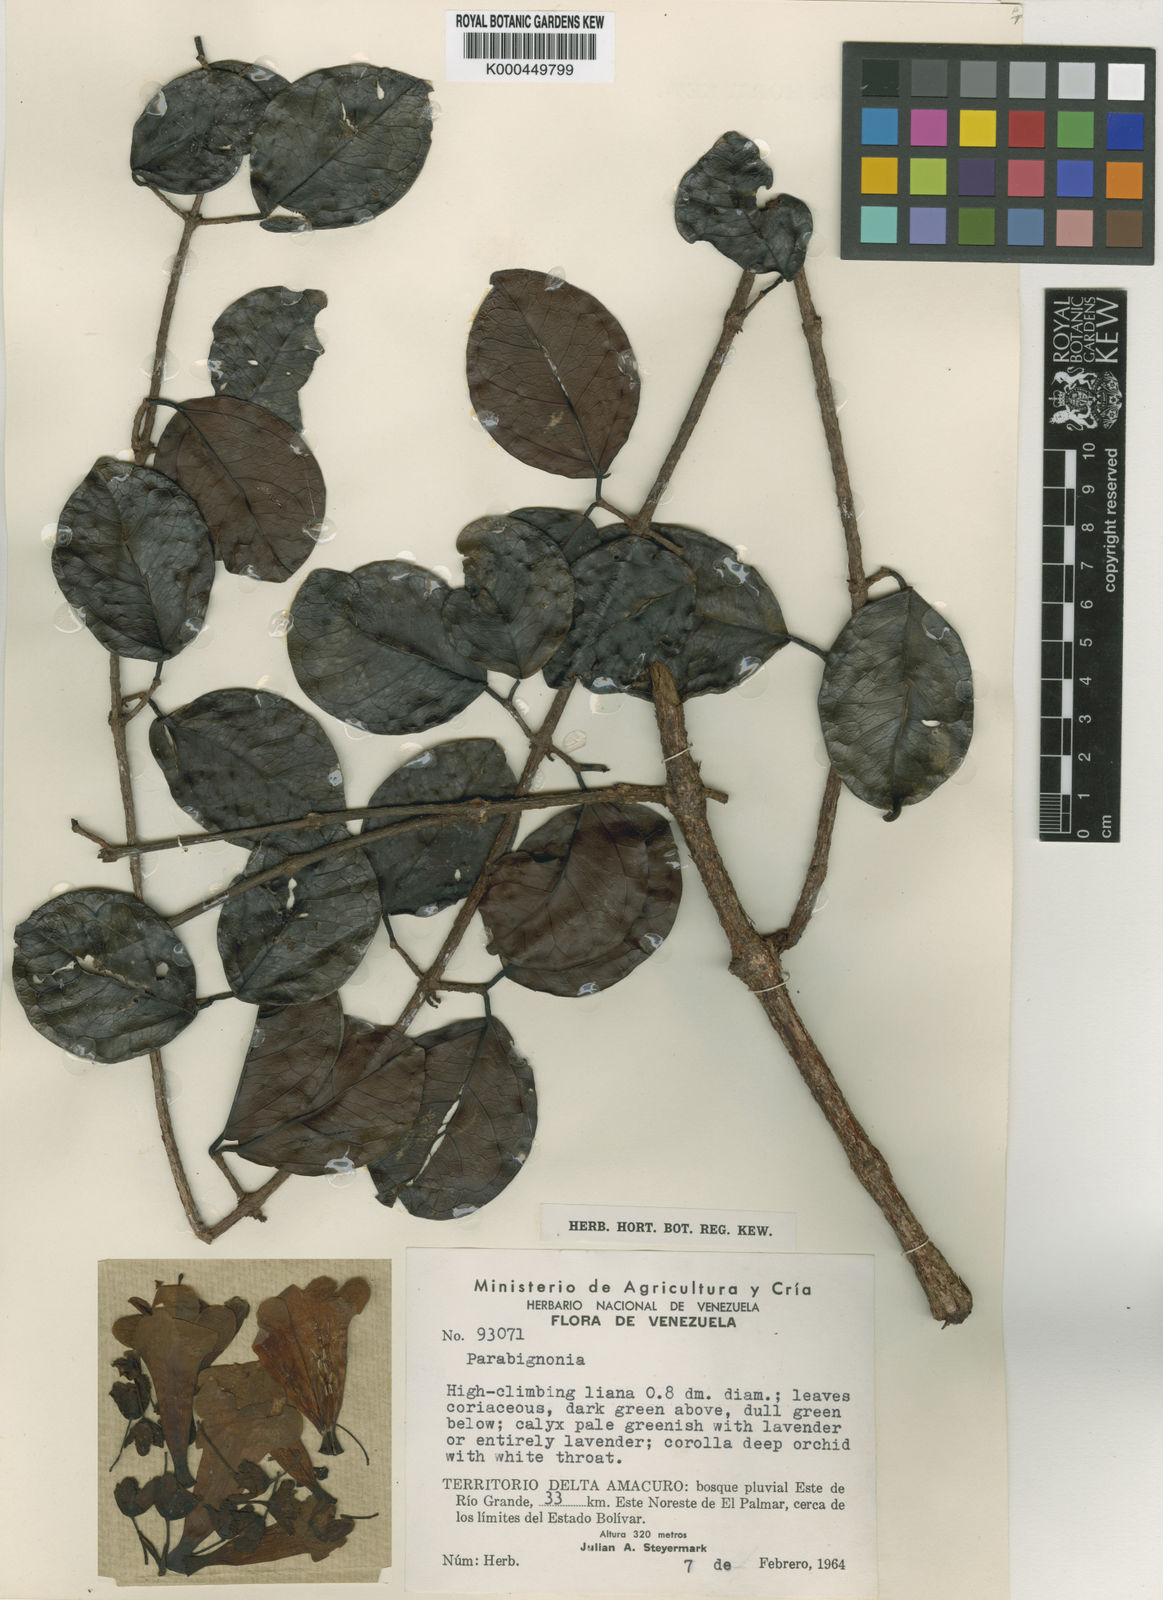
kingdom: Plantae
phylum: Tracheophyta
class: Magnoliopsida
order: Lamiales
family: Bignoniaceae
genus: Dolichandra
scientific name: Dolichandra steyermarkii
